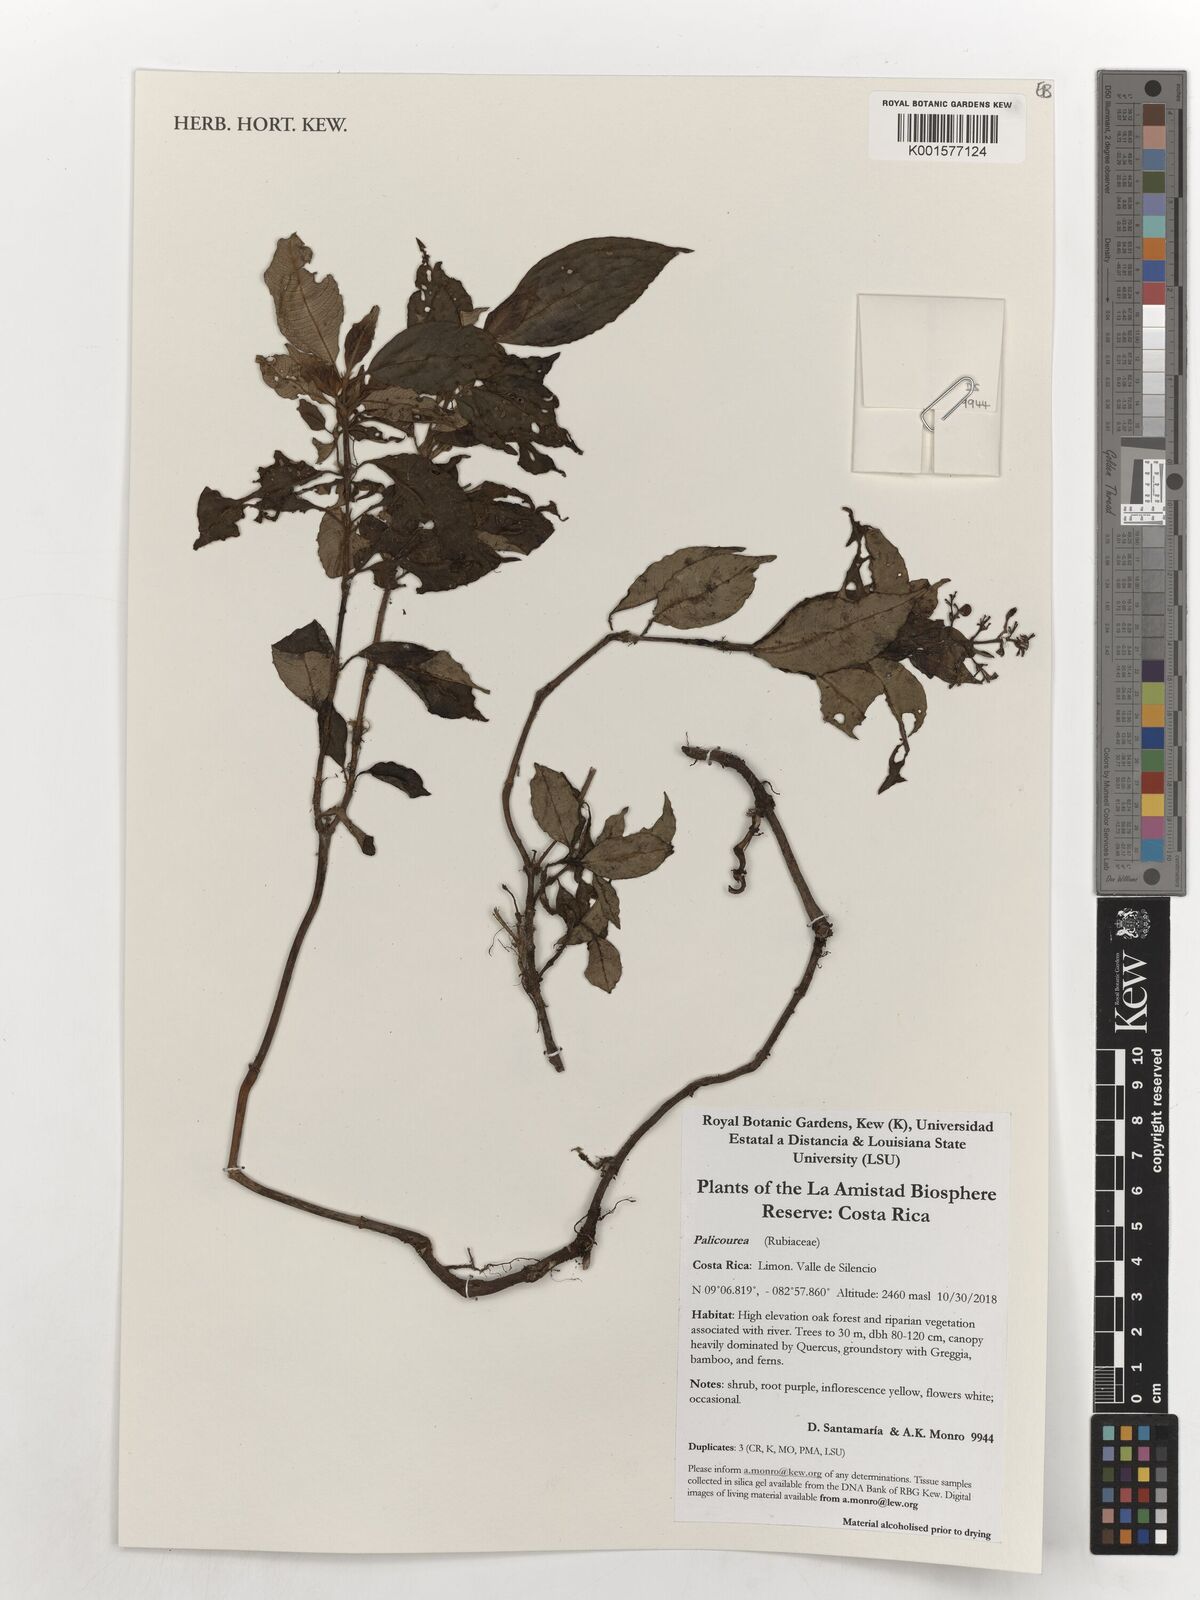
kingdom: Plantae
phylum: Tracheophyta
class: Magnoliopsida
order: Gentianales
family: Rubiaceae
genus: Palicourea
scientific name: Palicourea
